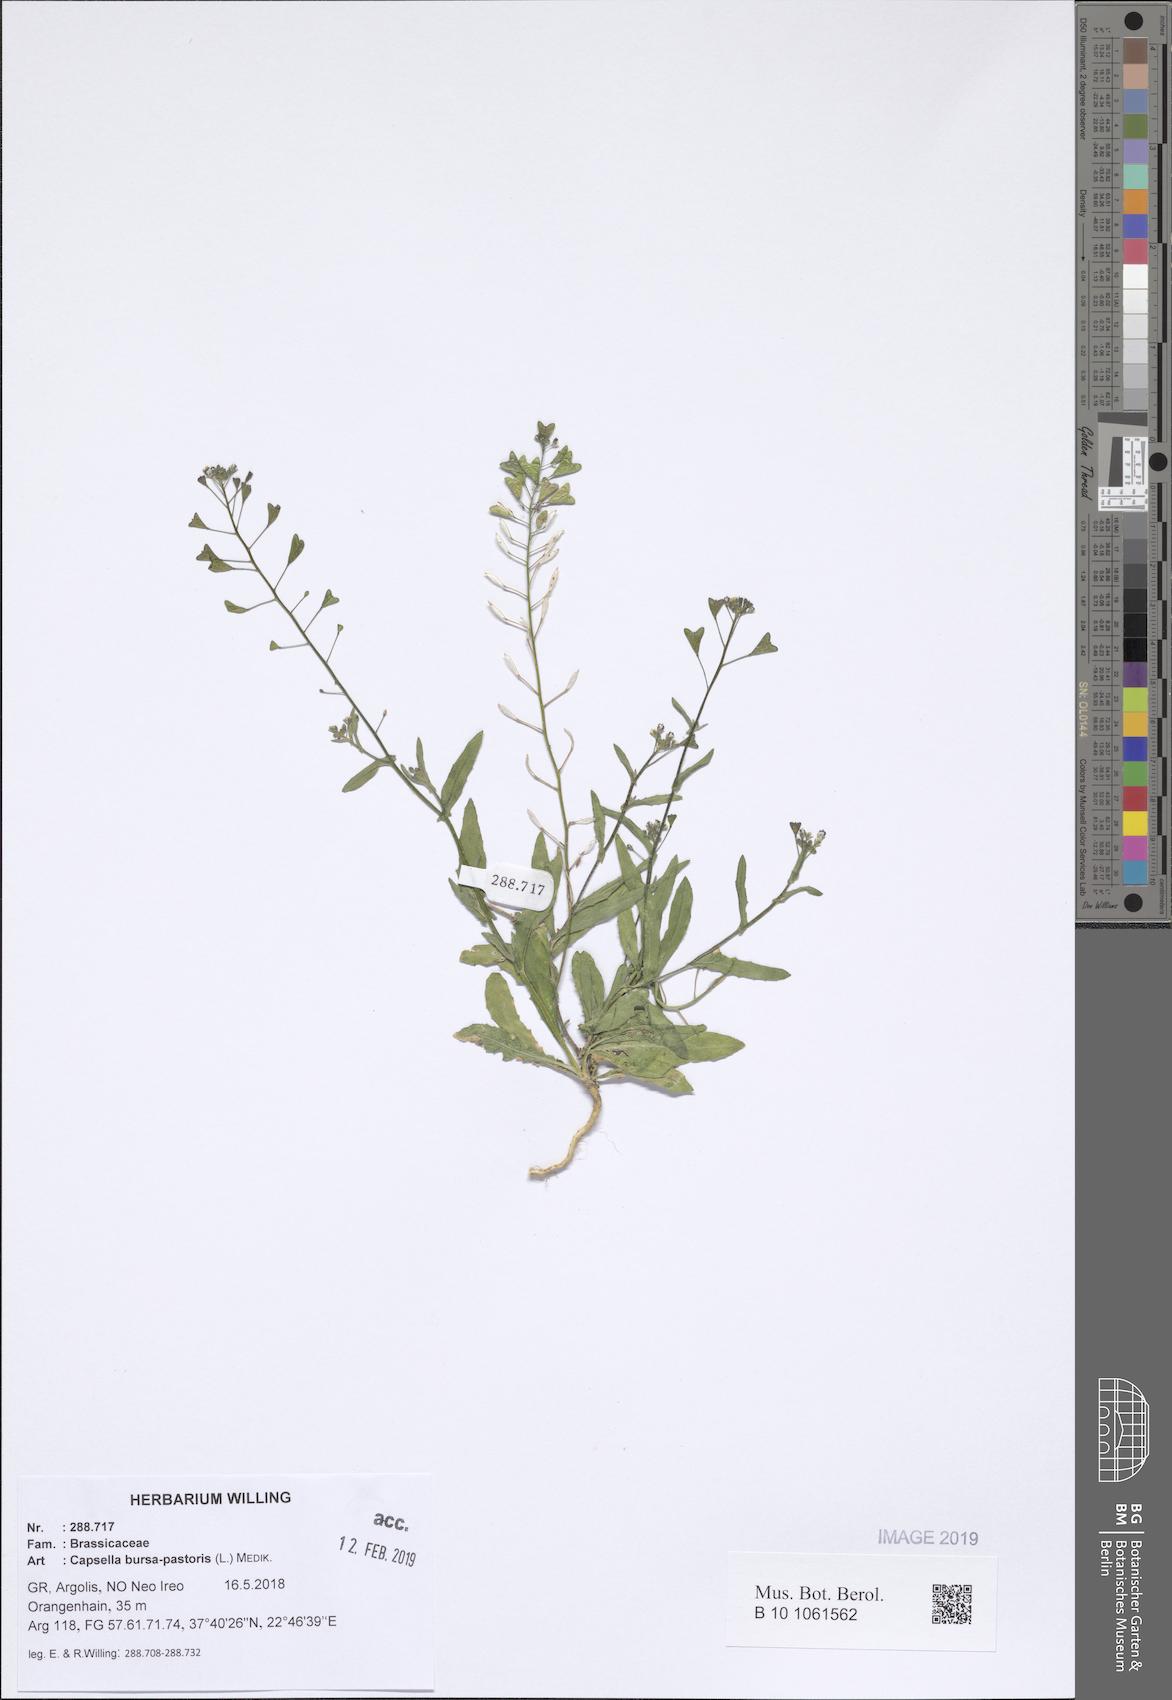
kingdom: Plantae
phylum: Tracheophyta
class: Magnoliopsida
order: Brassicales
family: Brassicaceae
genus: Capsella
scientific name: Capsella bursa-pastoris
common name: Shepherd's purse
